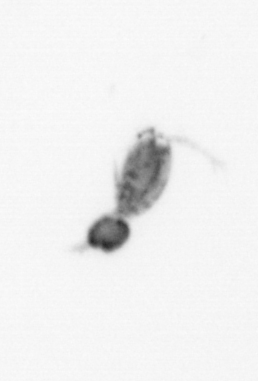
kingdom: Animalia
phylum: Arthropoda
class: Copepoda
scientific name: Copepoda
